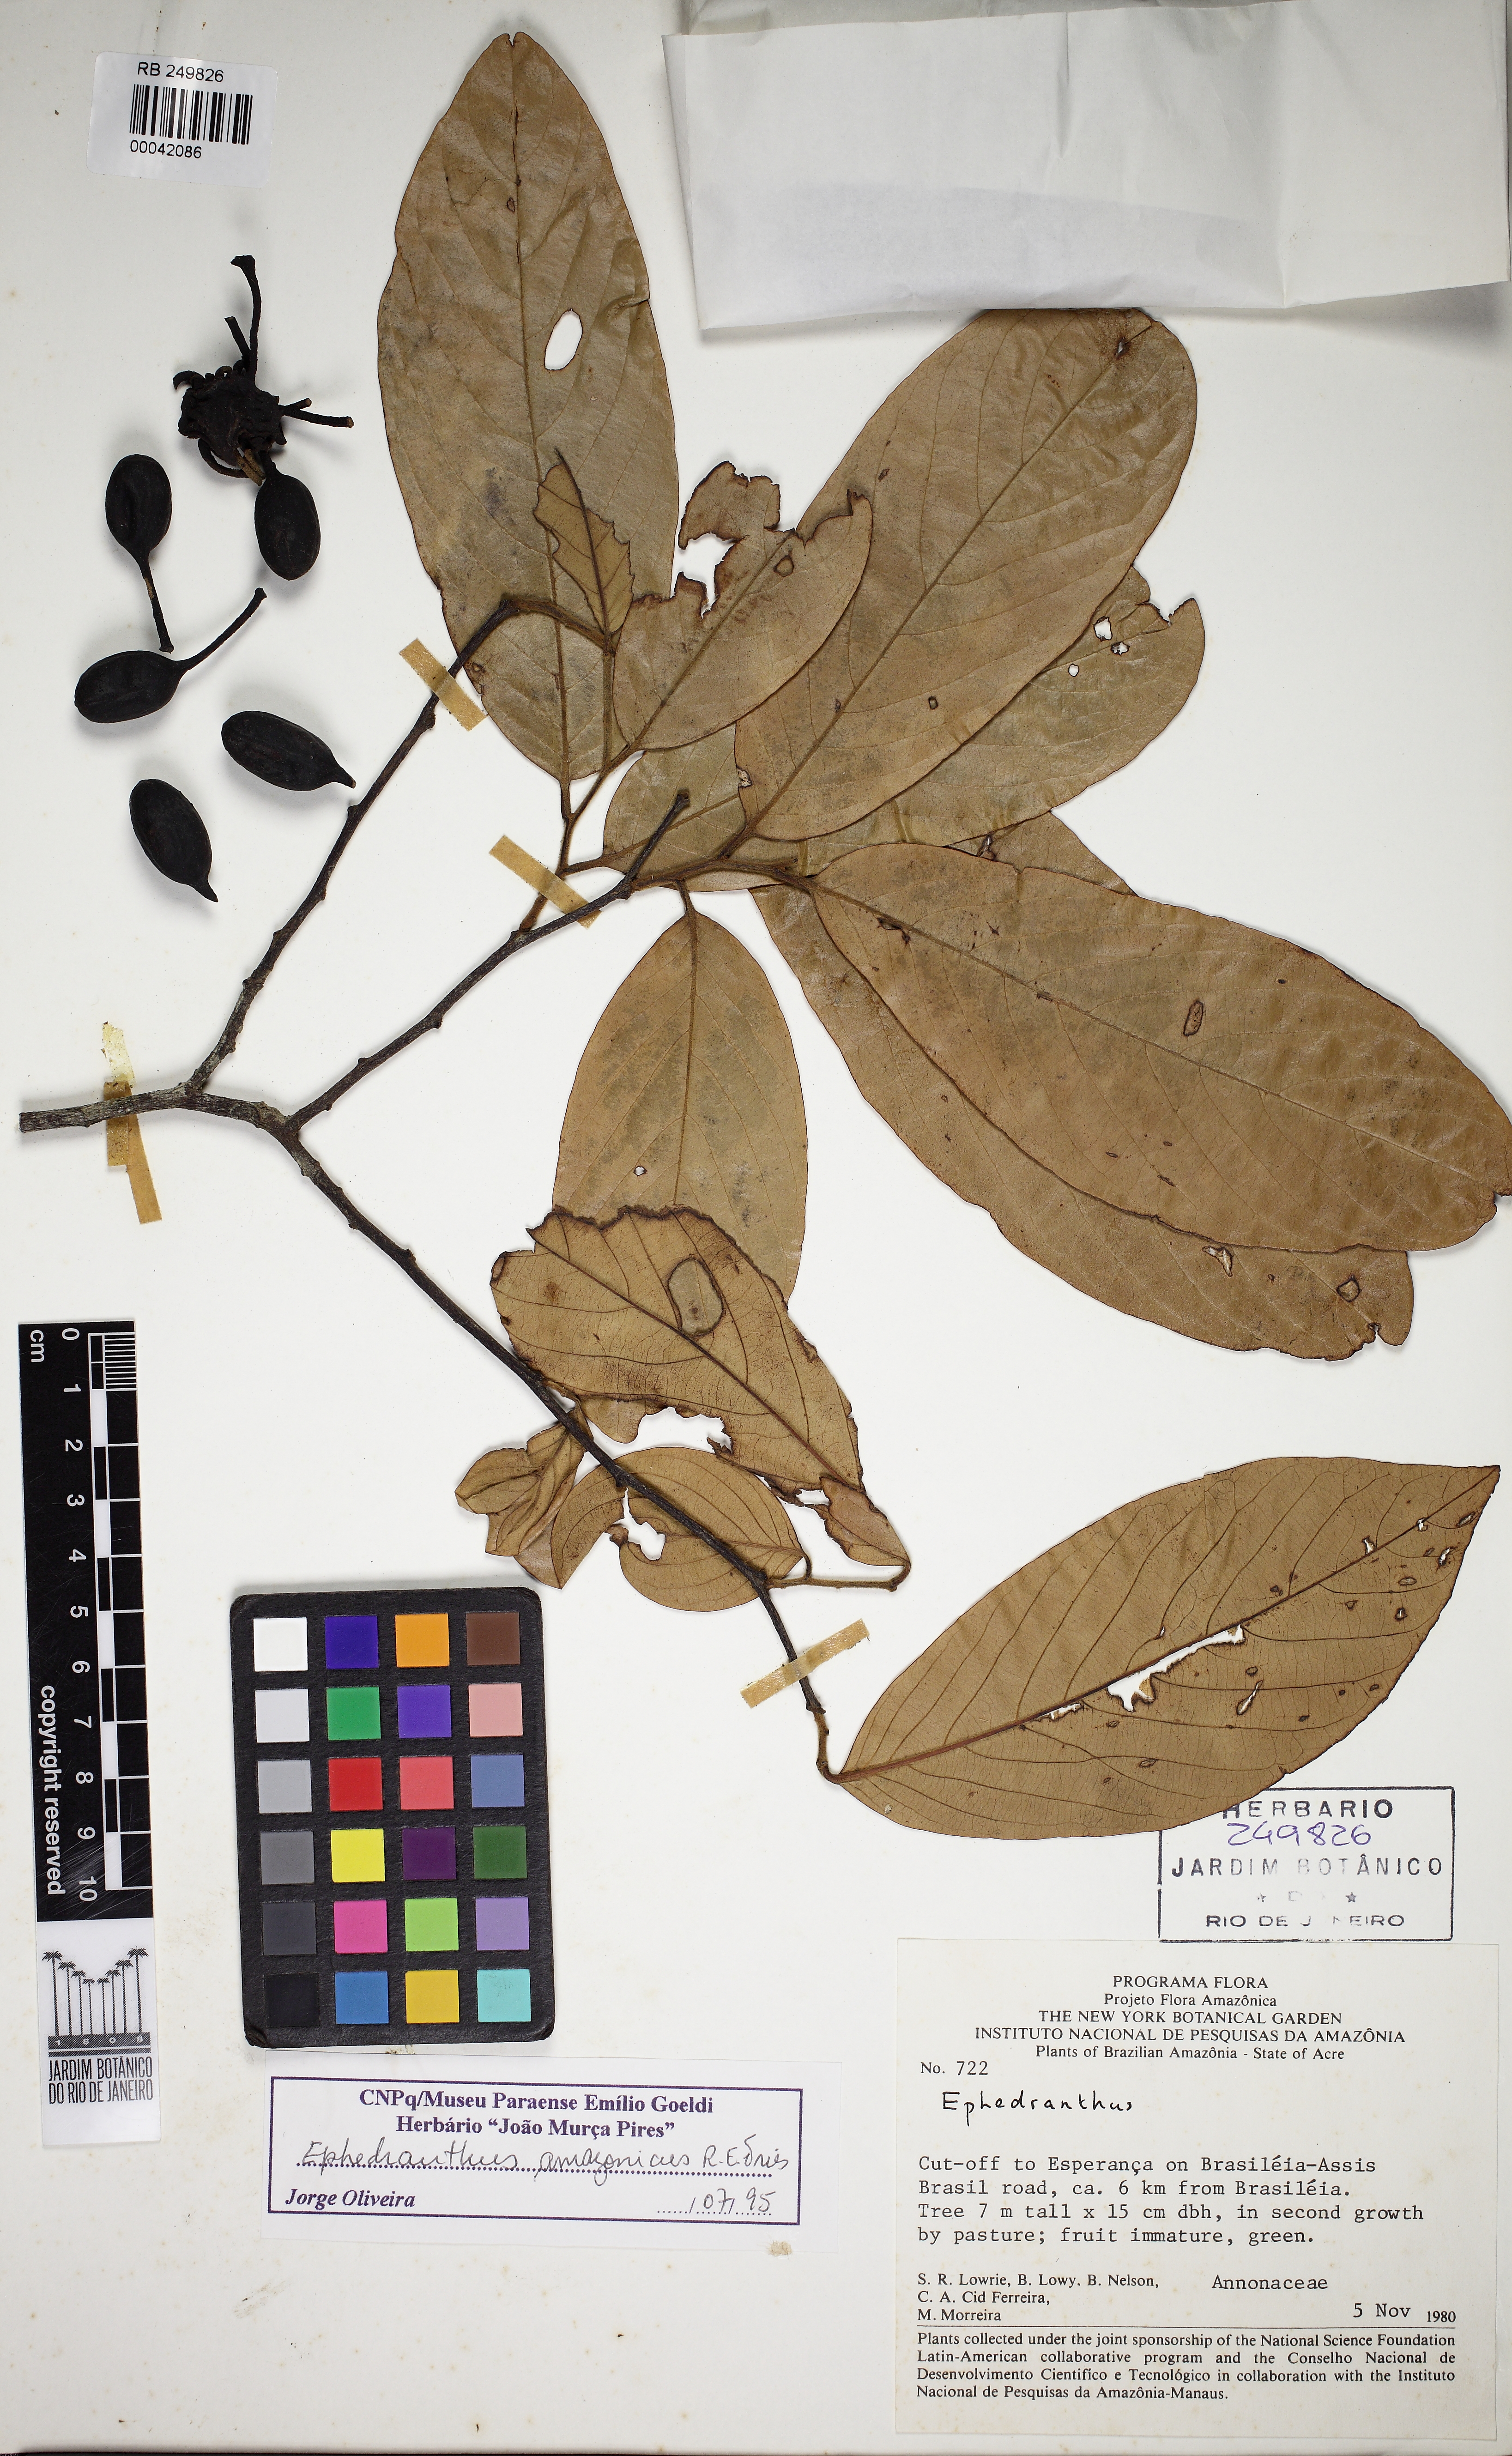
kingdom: Plantae
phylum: Tracheophyta
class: Magnoliopsida
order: Magnoliales
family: Annonaceae
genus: Ephedranthus
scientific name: Ephedranthus parviflorus
